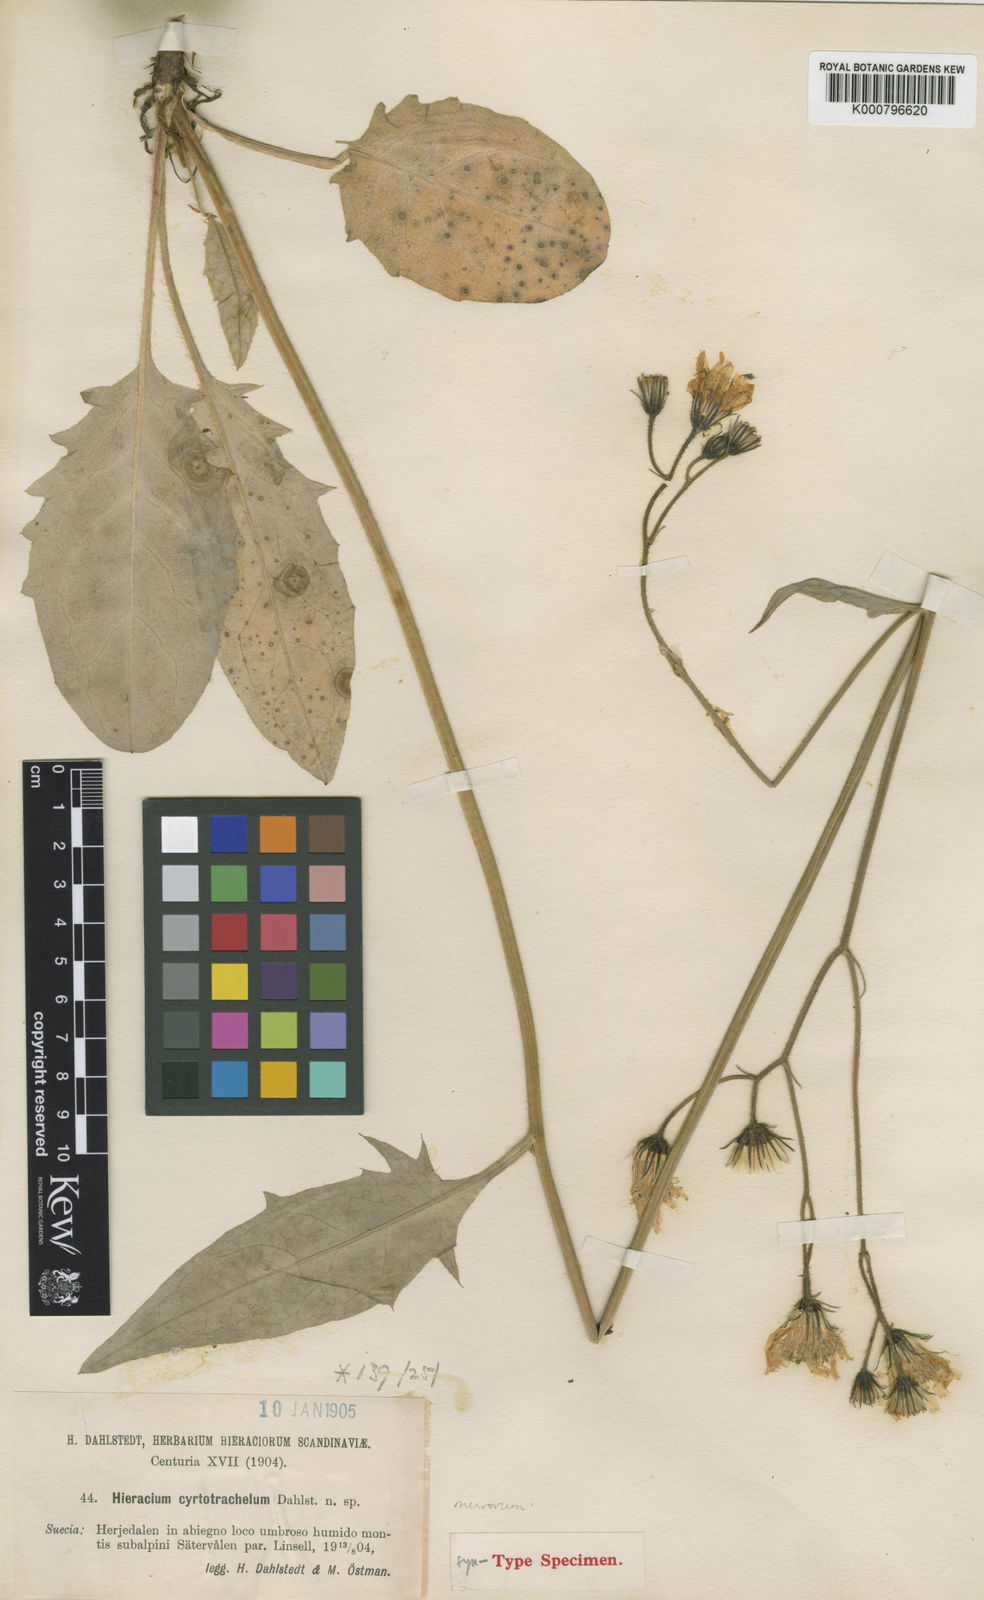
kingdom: Plantae
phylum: Tracheophyta
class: Magnoliopsida
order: Asterales
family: Asteraceae
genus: Hieracium
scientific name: Hieracium murorum
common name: Wall hawkweed
